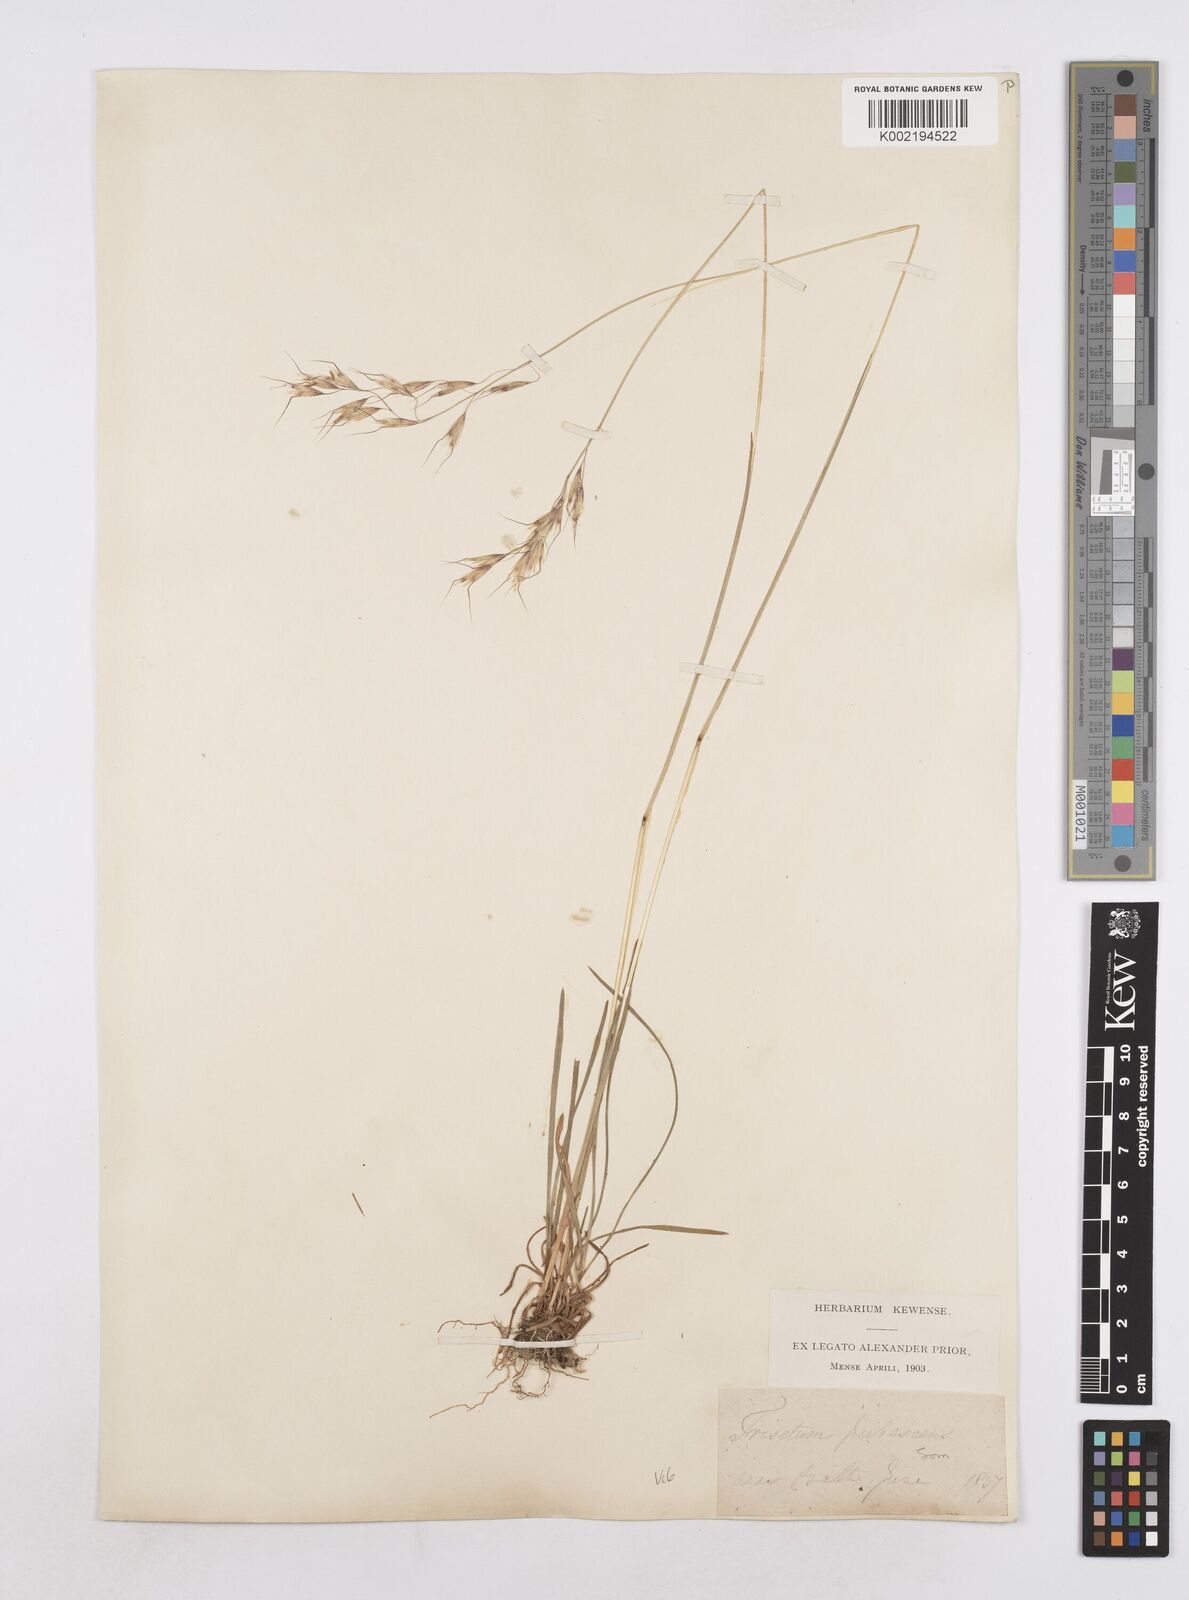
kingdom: Plantae
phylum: Tracheophyta
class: Liliopsida
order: Poales
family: Poaceae
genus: Avenula
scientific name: Avenula pubescens
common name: Downy alpine oatgrass
